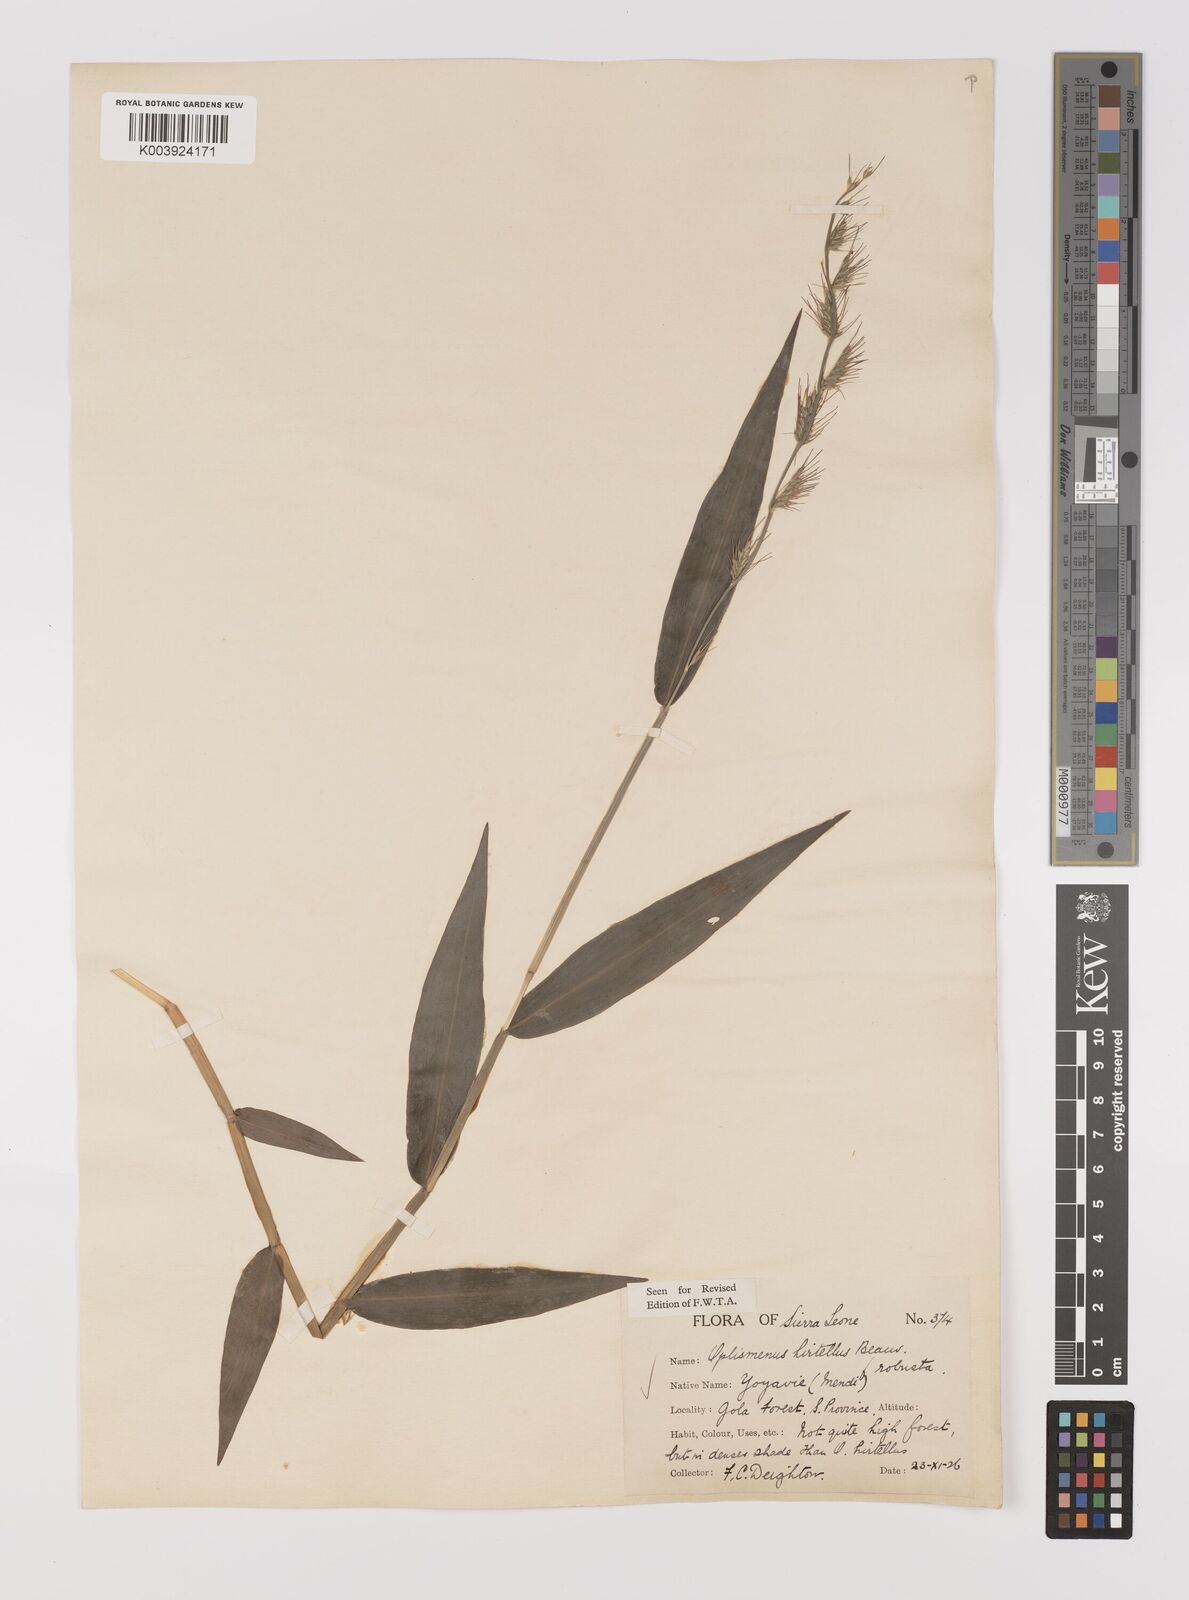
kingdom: Plantae
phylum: Tracheophyta
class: Liliopsida
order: Poales
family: Poaceae
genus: Oplismenus
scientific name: Oplismenus hirtellus
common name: Basketgrass
